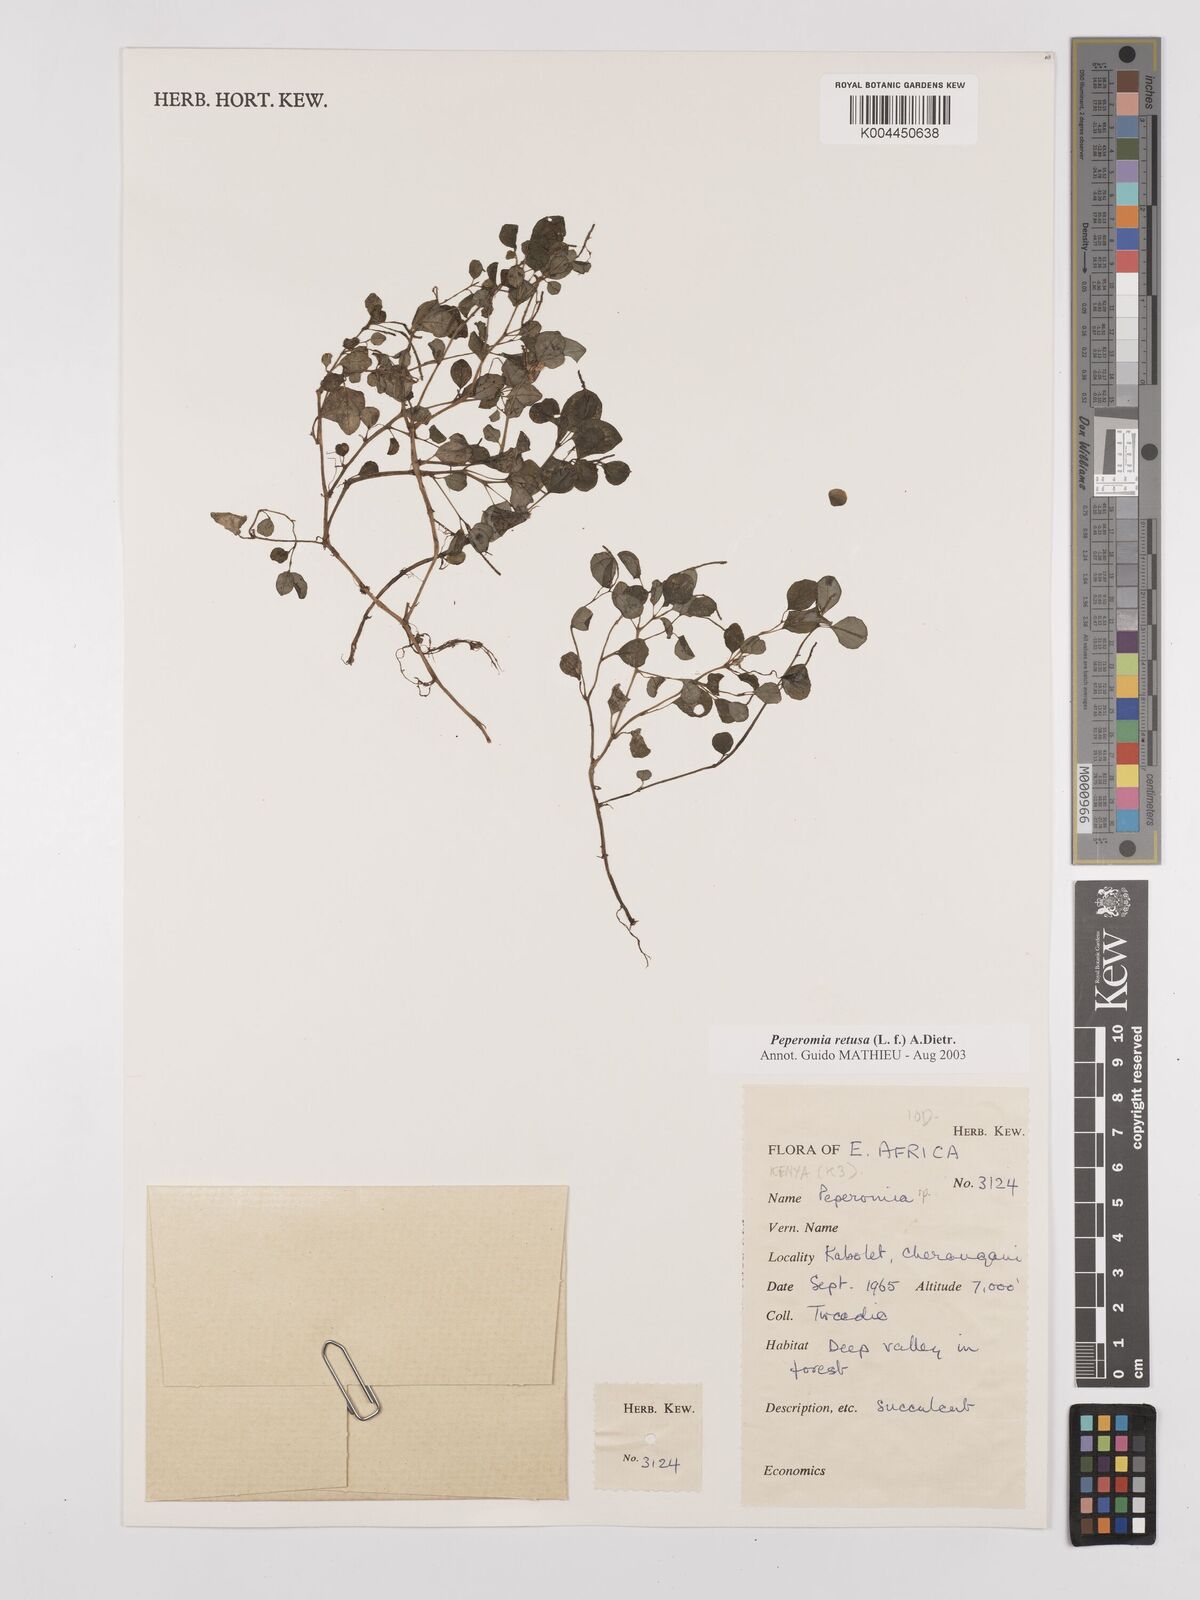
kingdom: Plantae
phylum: Tracheophyta
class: Magnoliopsida
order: Piperales
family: Piperaceae
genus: Peperomia
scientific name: Peperomia retusa
